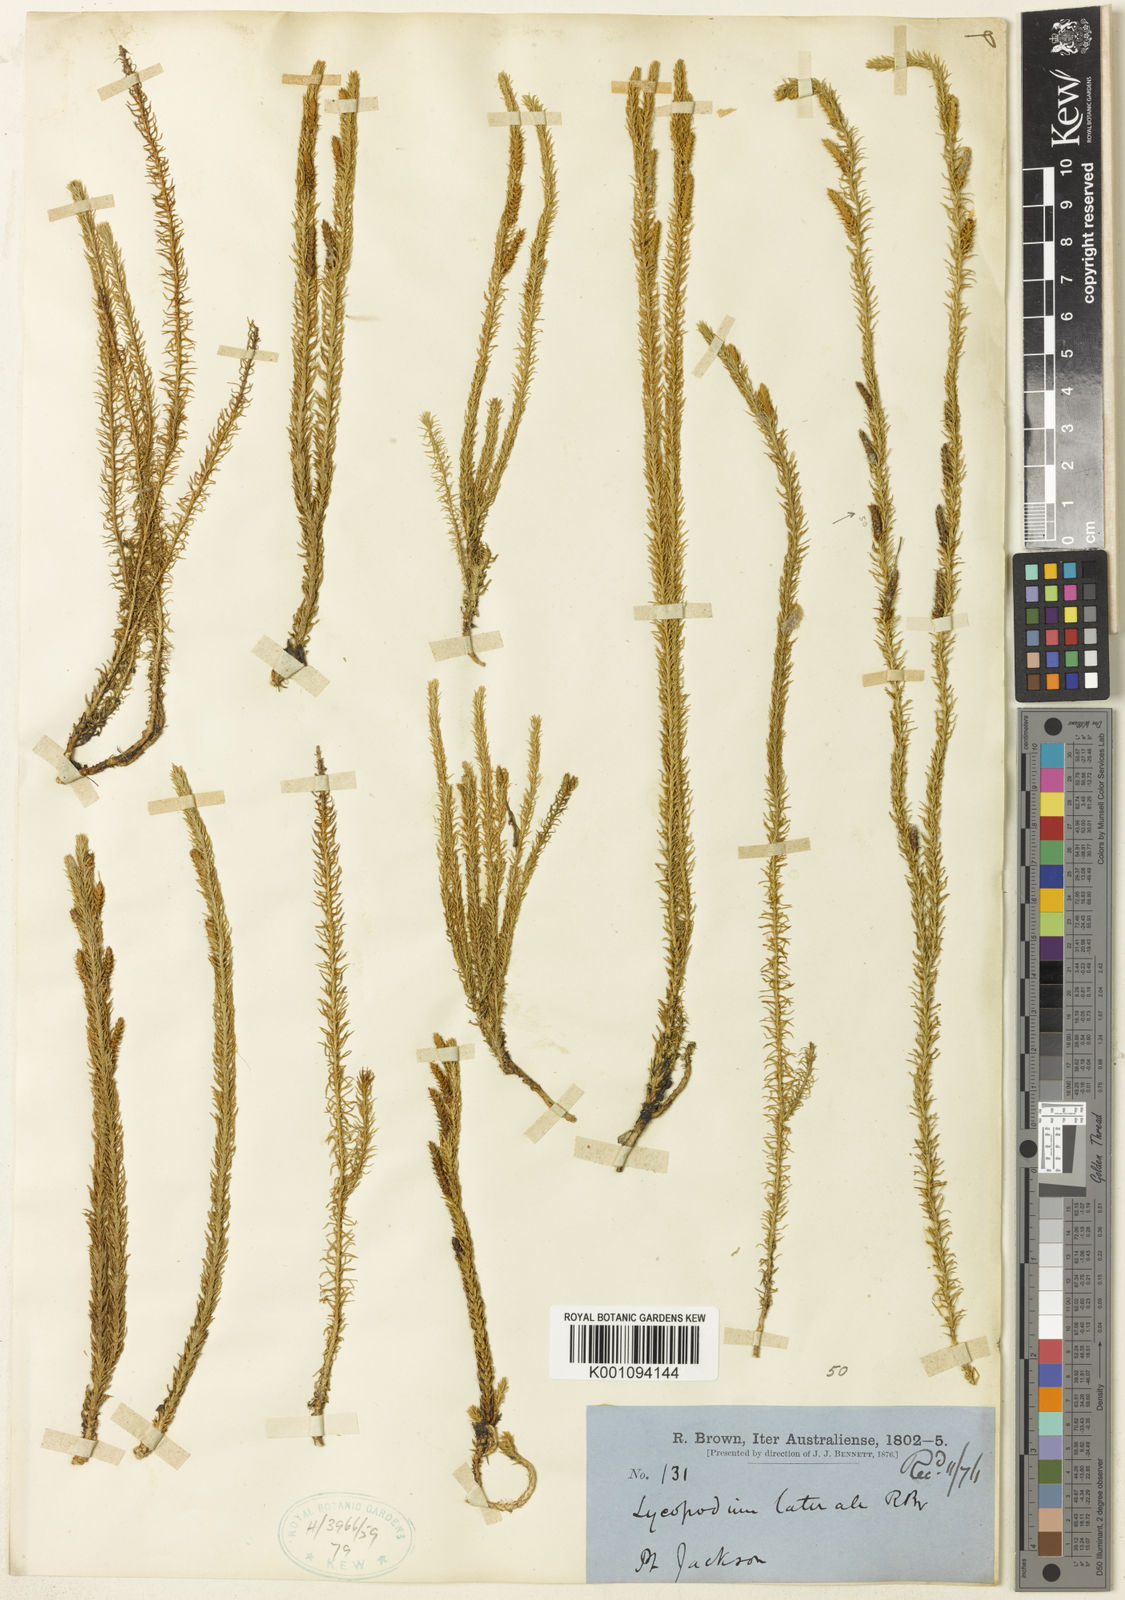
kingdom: Plantae
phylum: Tracheophyta
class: Lycopodiopsida
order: Lycopodiales
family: Lycopodiaceae
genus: Lateristachys
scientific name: Lateristachys lateralis
